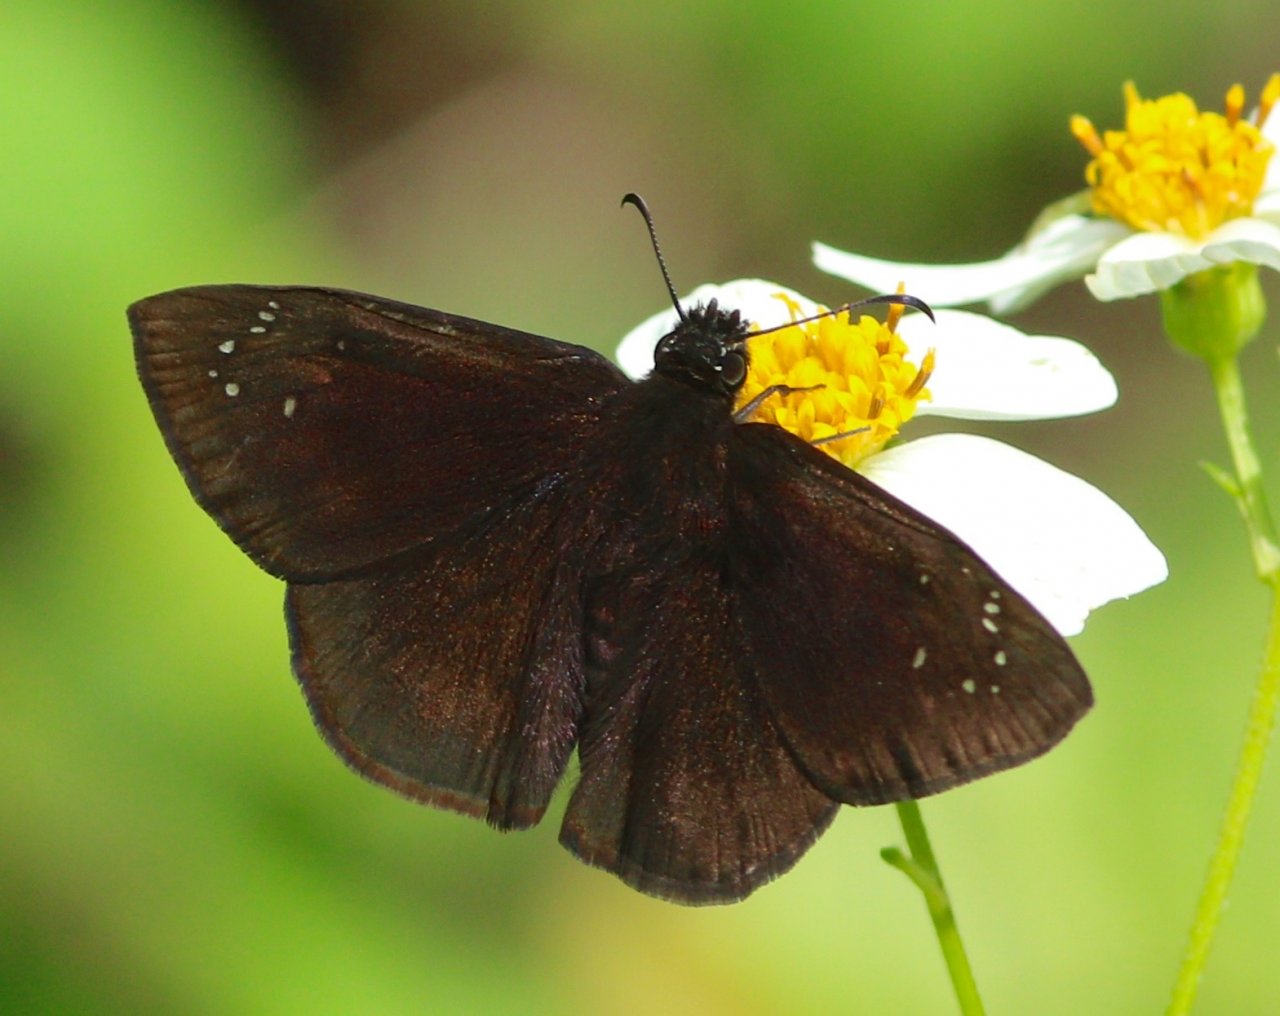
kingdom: Animalia
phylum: Arthropoda
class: Insecta
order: Lepidoptera
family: Hesperiidae
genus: Ephyriades
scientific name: Ephyriades brunnea
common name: Florida Duskywing
